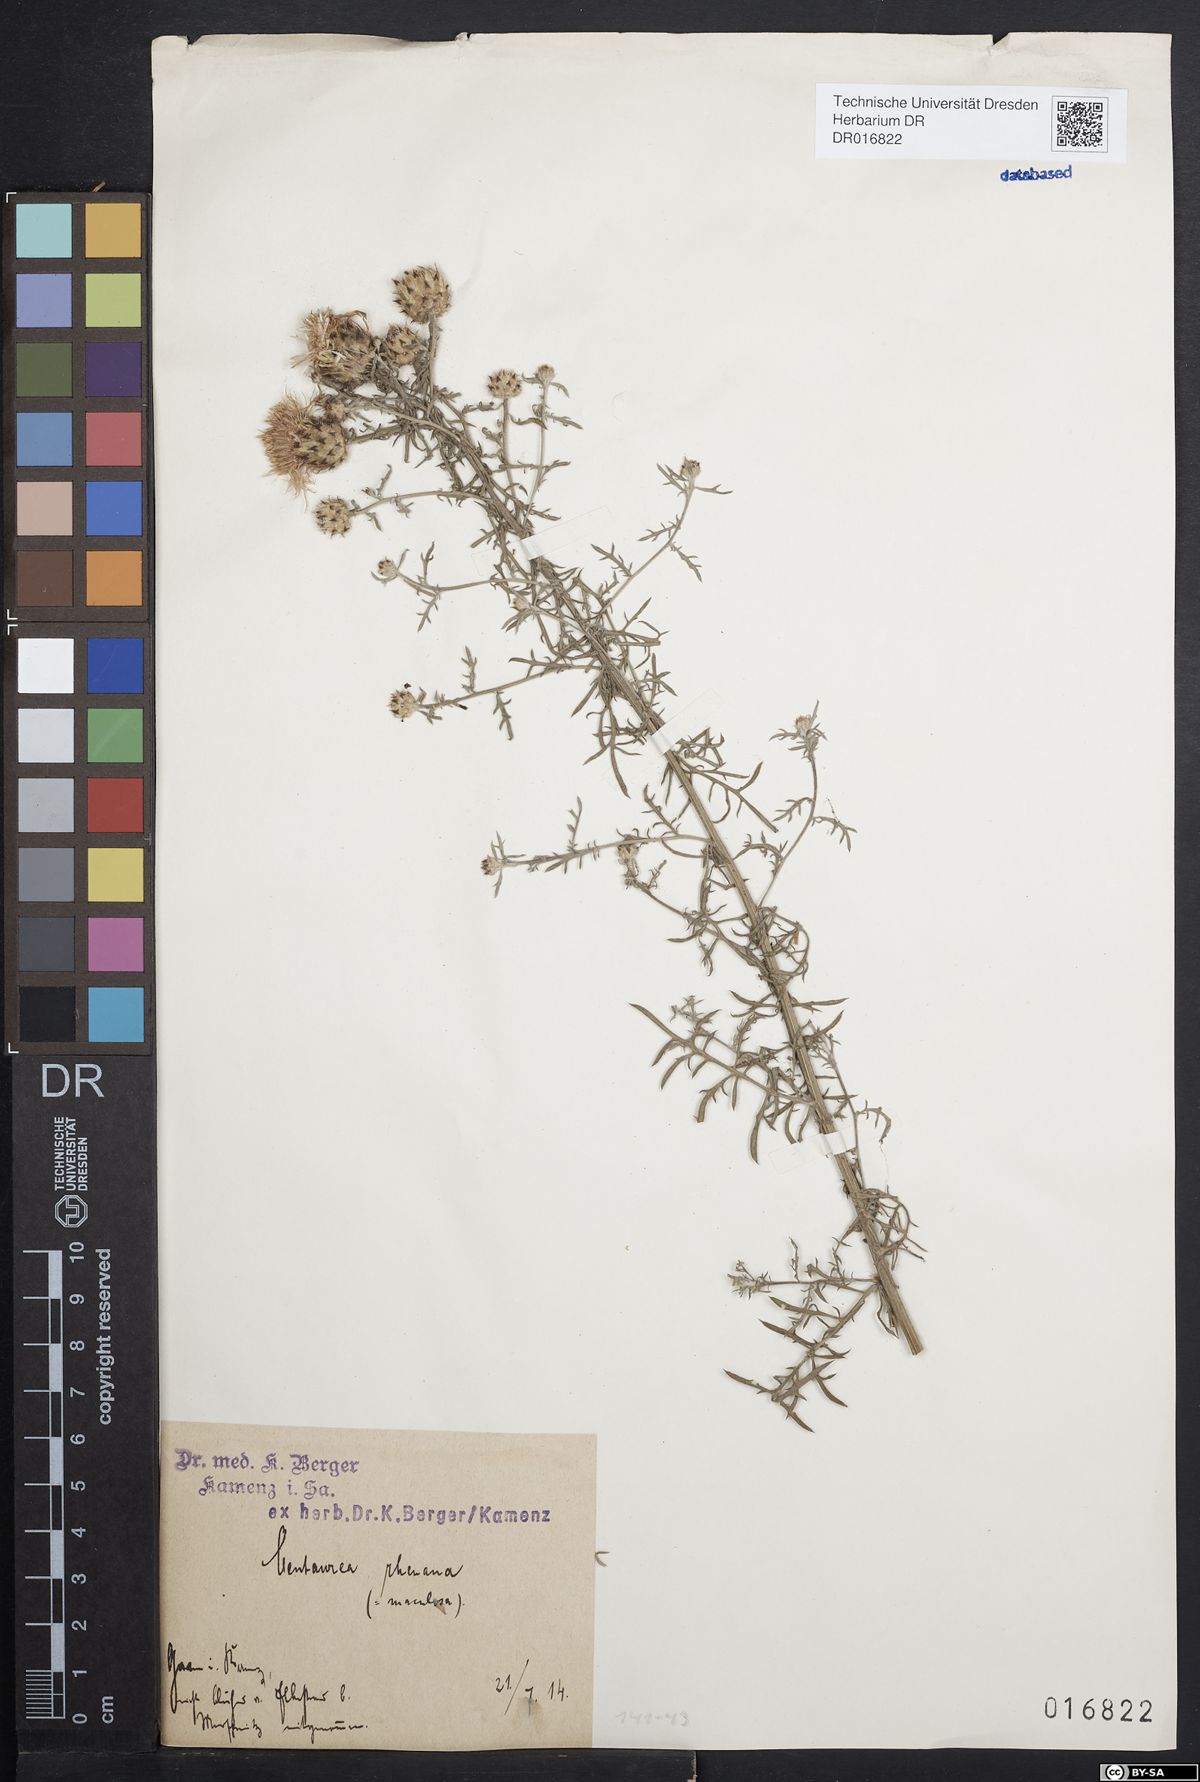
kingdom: Plantae
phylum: Tracheophyta
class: Magnoliopsida
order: Asterales
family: Asteraceae
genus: Centaurea
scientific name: Centaurea stoebe
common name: Spotted knapweed
